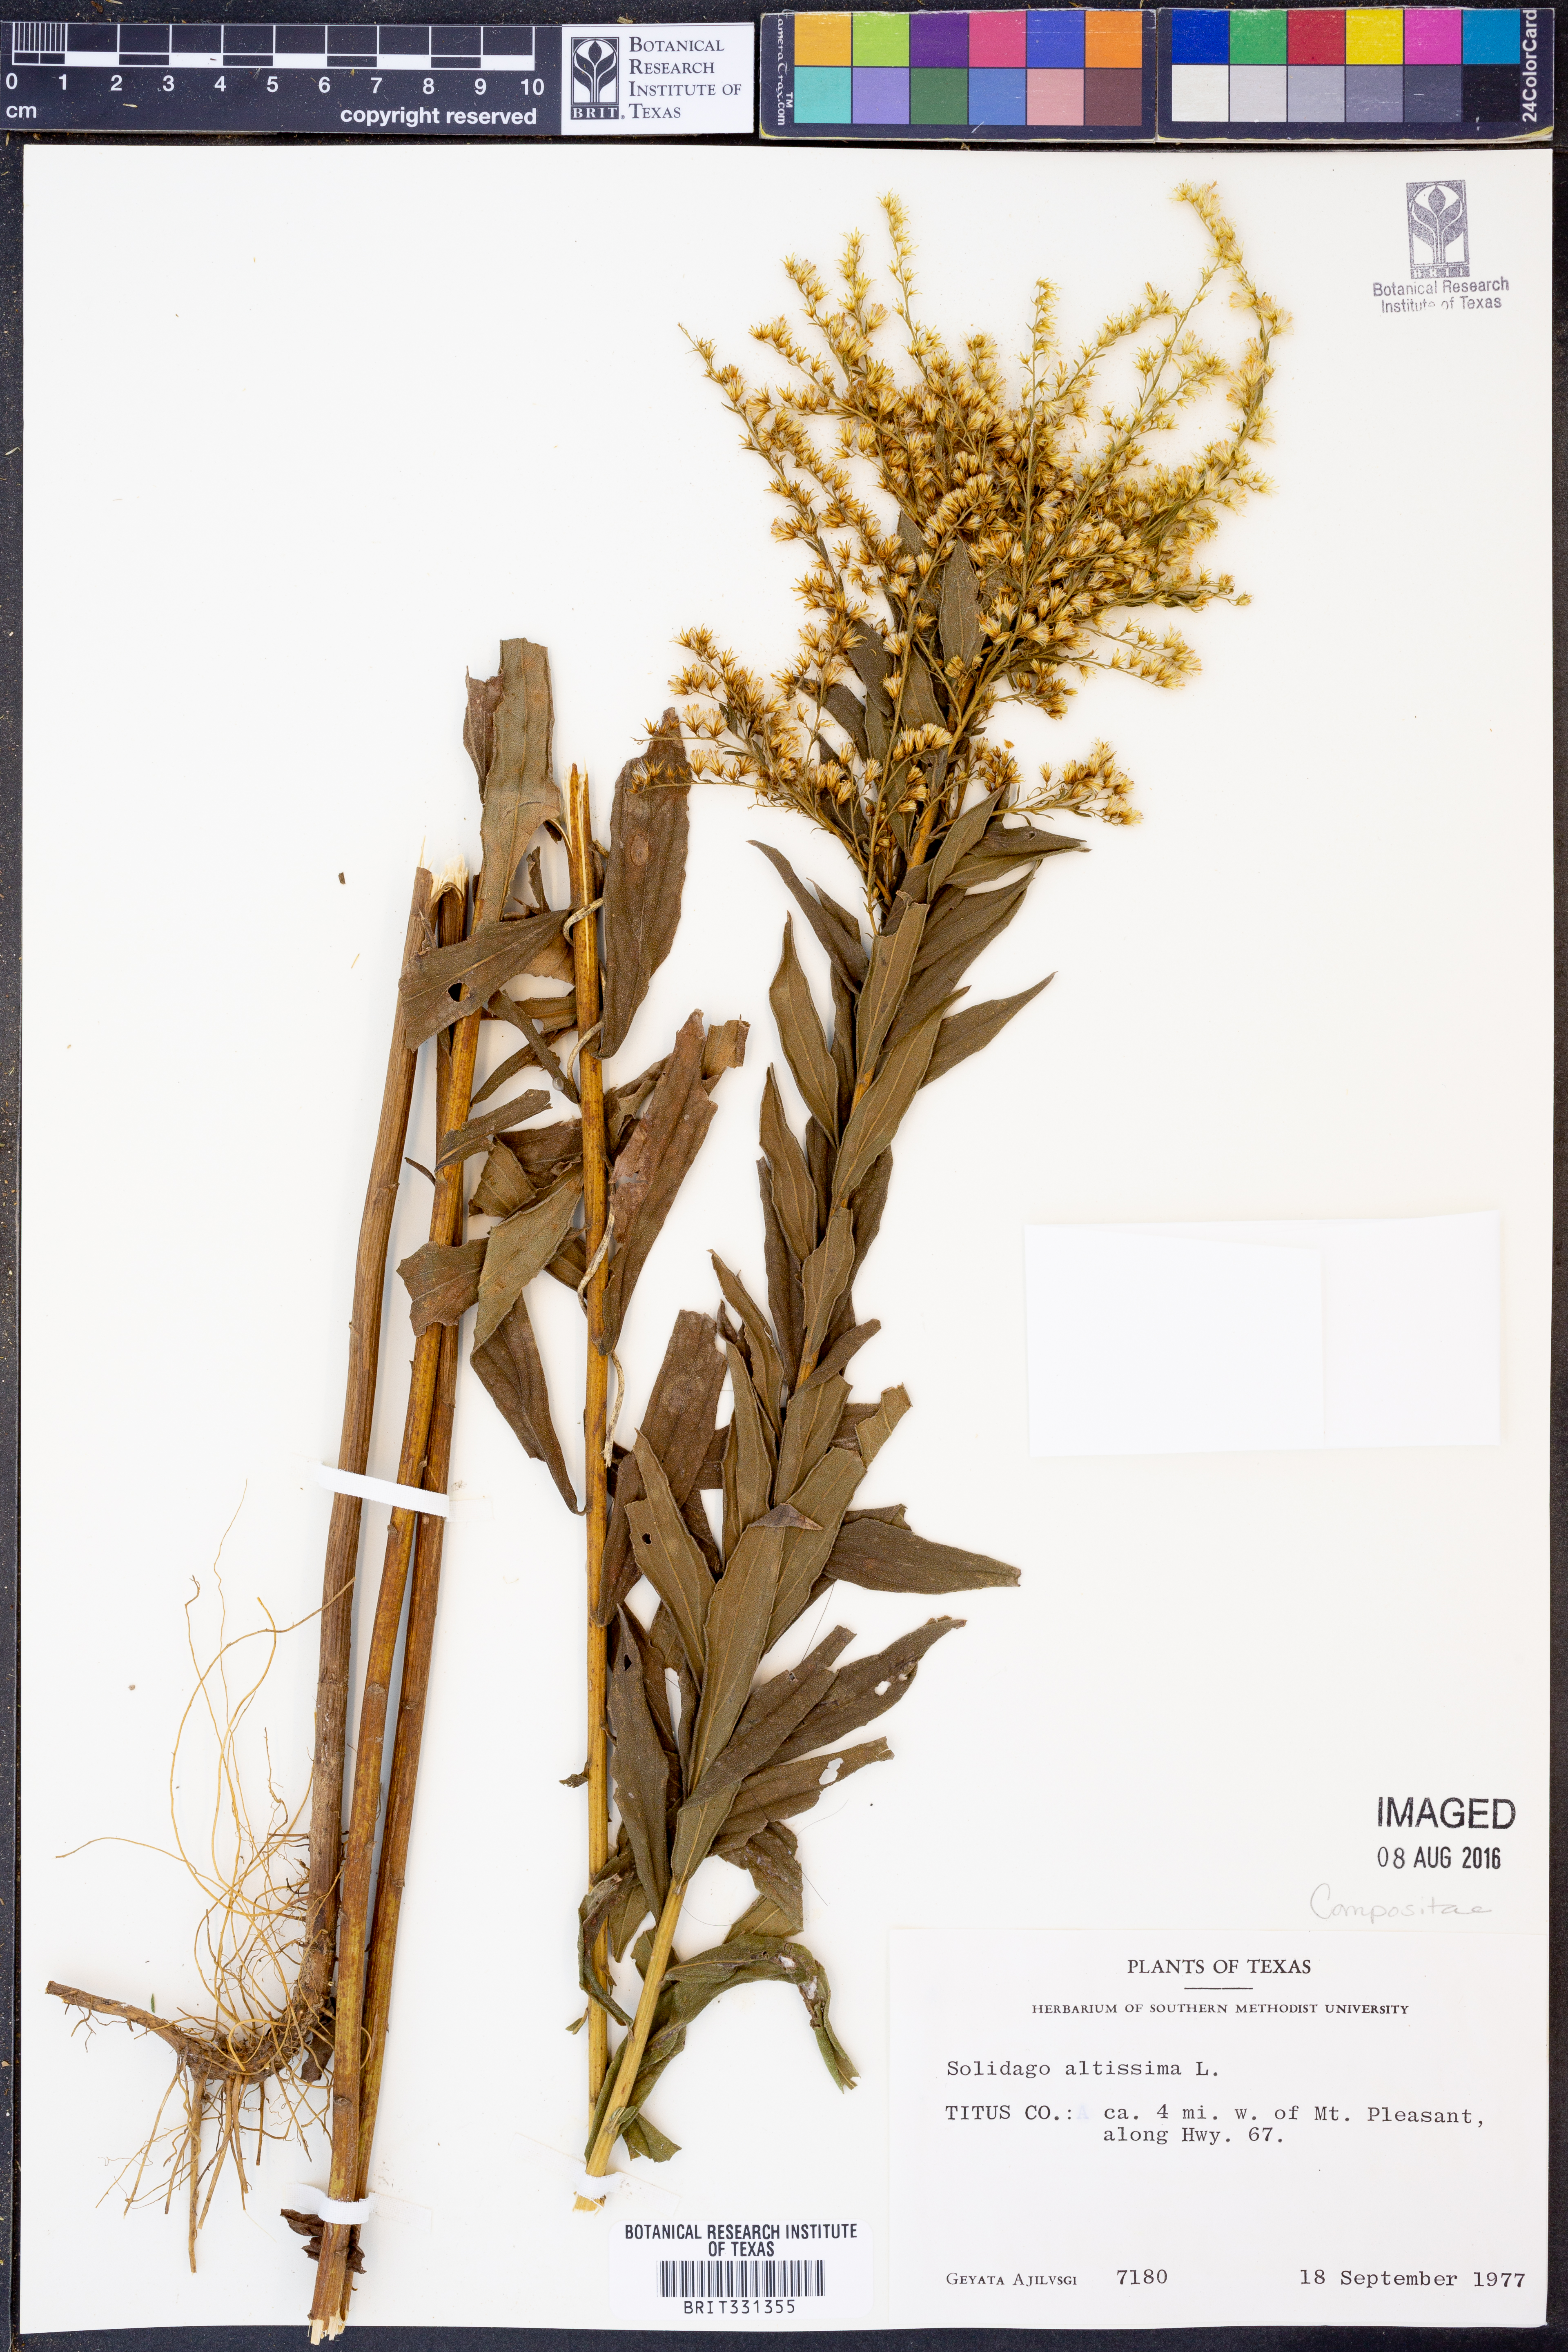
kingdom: Plantae
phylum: Tracheophyta
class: Magnoliopsida
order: Asterales
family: Asteraceae
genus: Solidago
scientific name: Solidago altissima
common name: Late goldenrod
